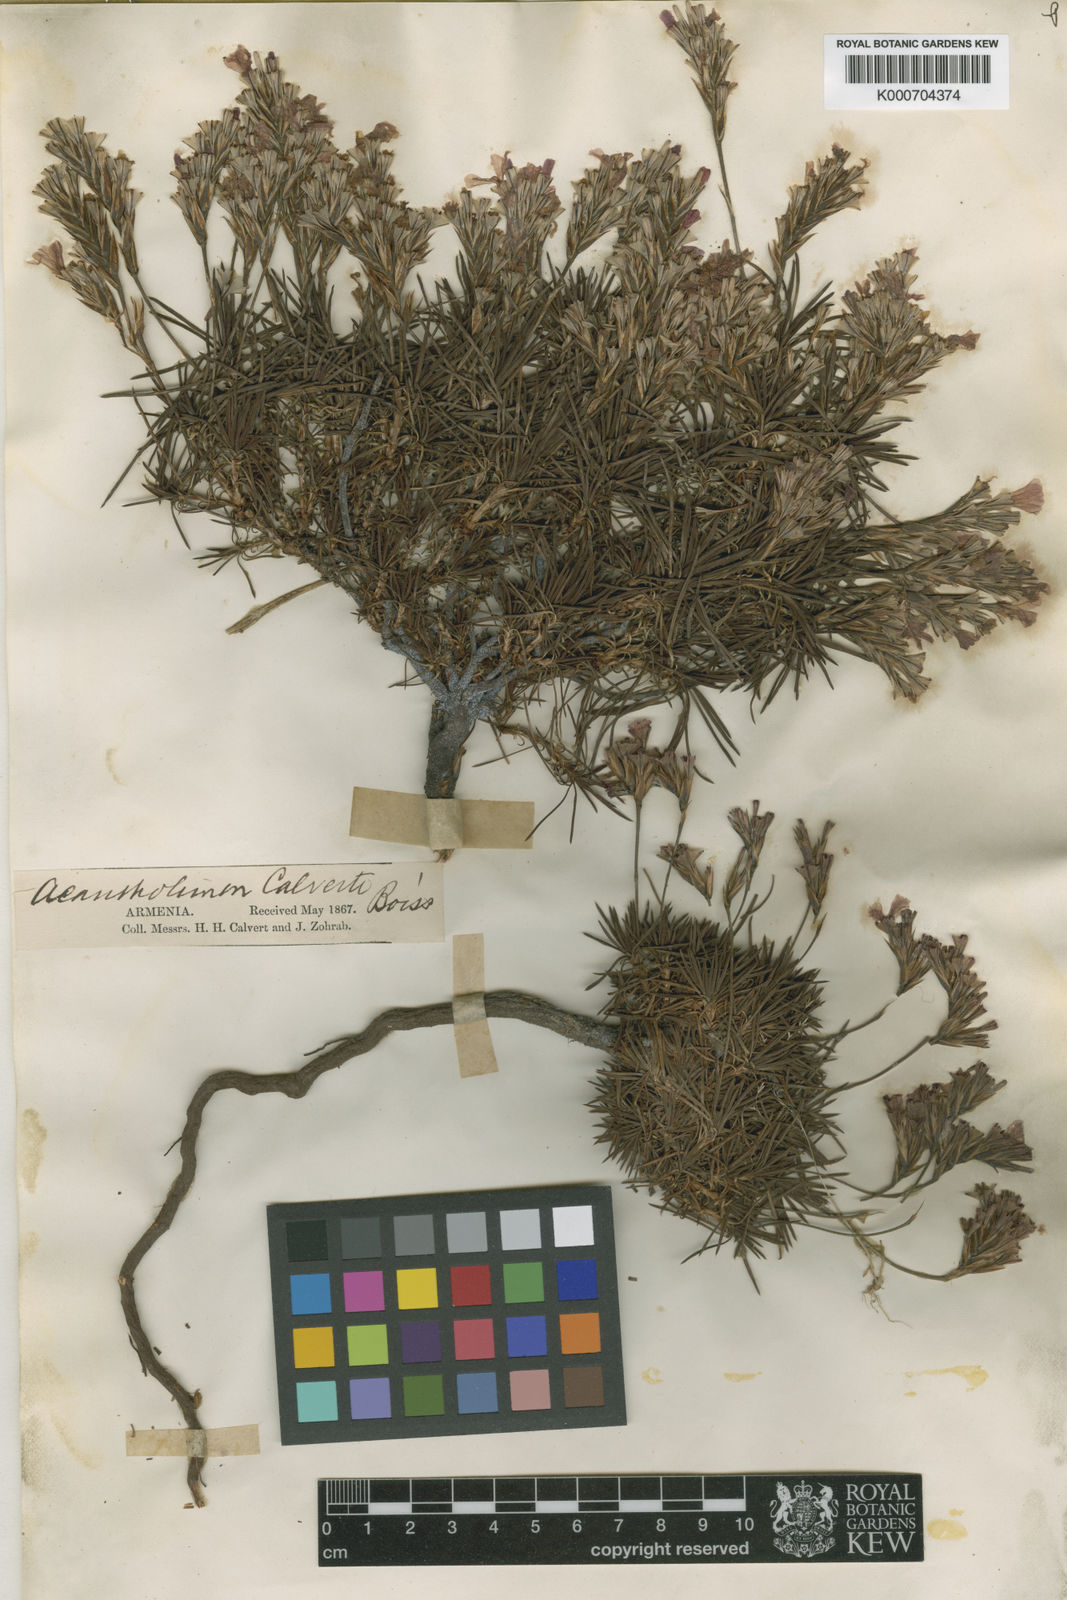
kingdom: Plantae
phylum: Tracheophyta
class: Magnoliopsida
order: Caryophyllales
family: Plumbaginaceae
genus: Acantholimon
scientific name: Acantholimon calvertii
